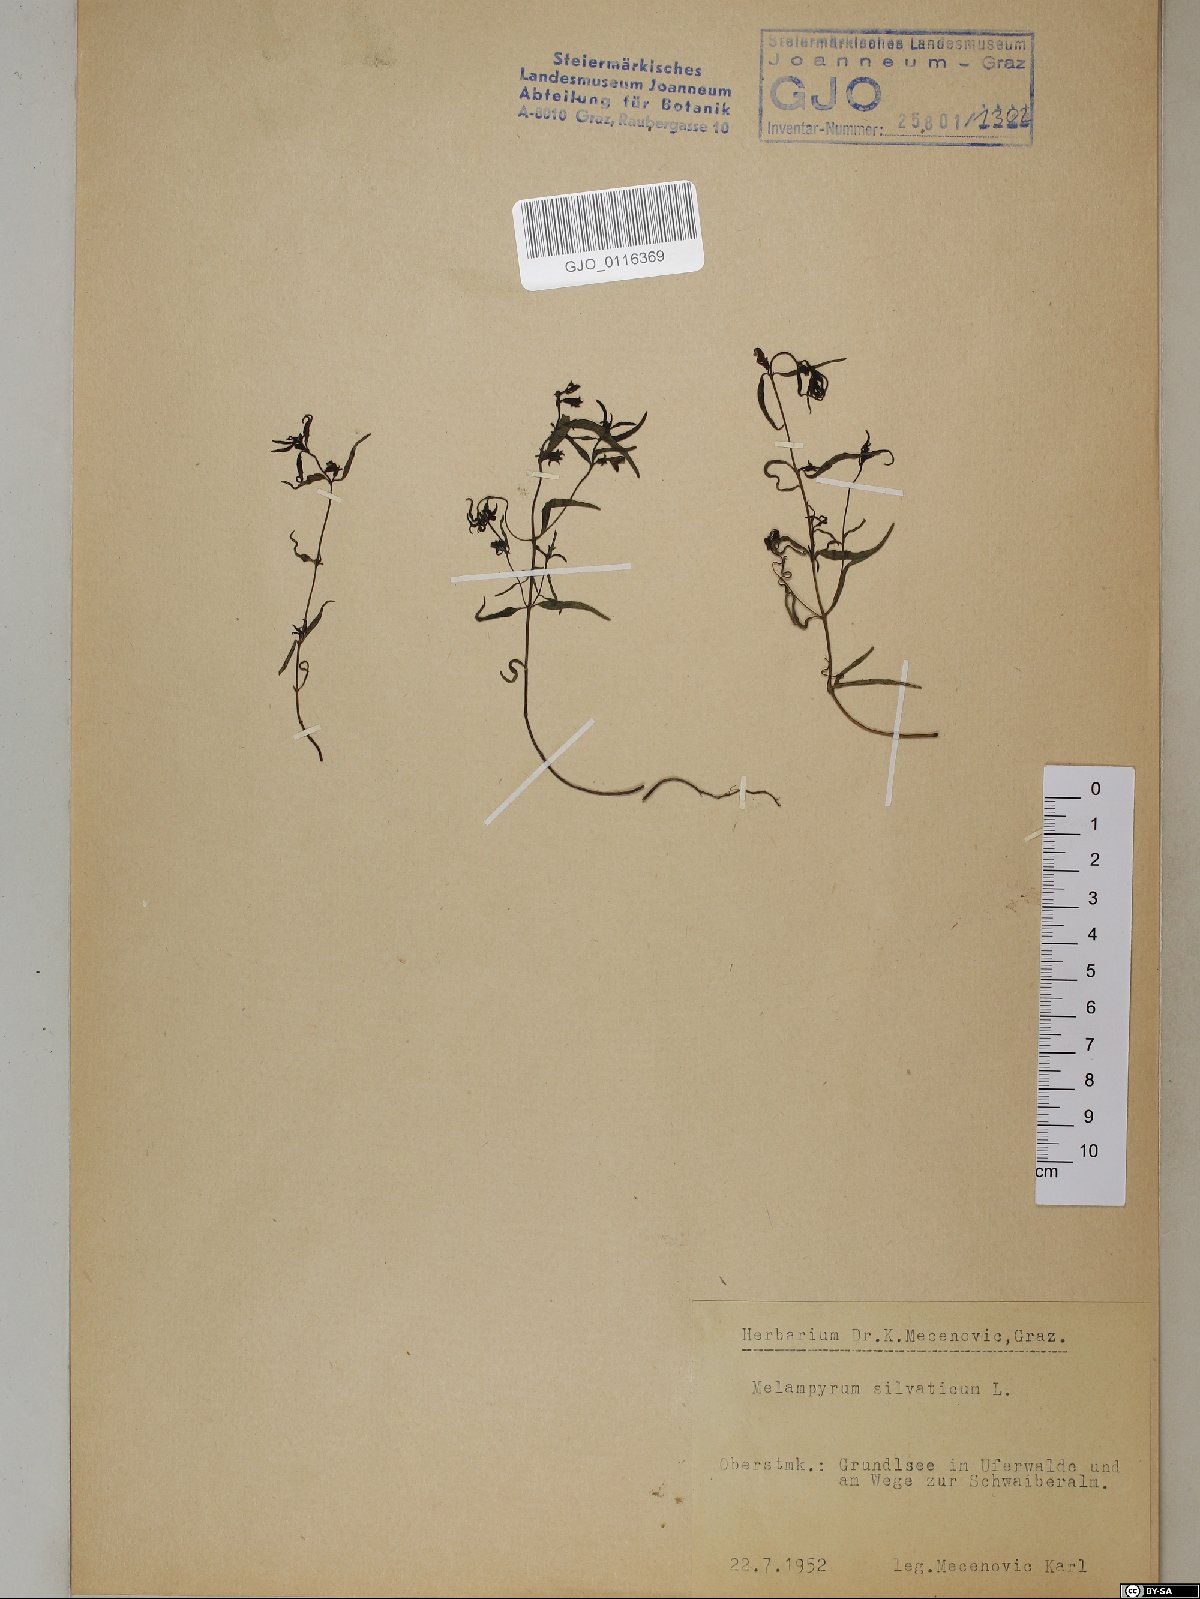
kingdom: Plantae
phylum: Tracheophyta
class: Magnoliopsida
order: Lamiales
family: Orobanchaceae
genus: Melampyrum
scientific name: Melampyrum sylvaticum
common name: Small cow-wheat
